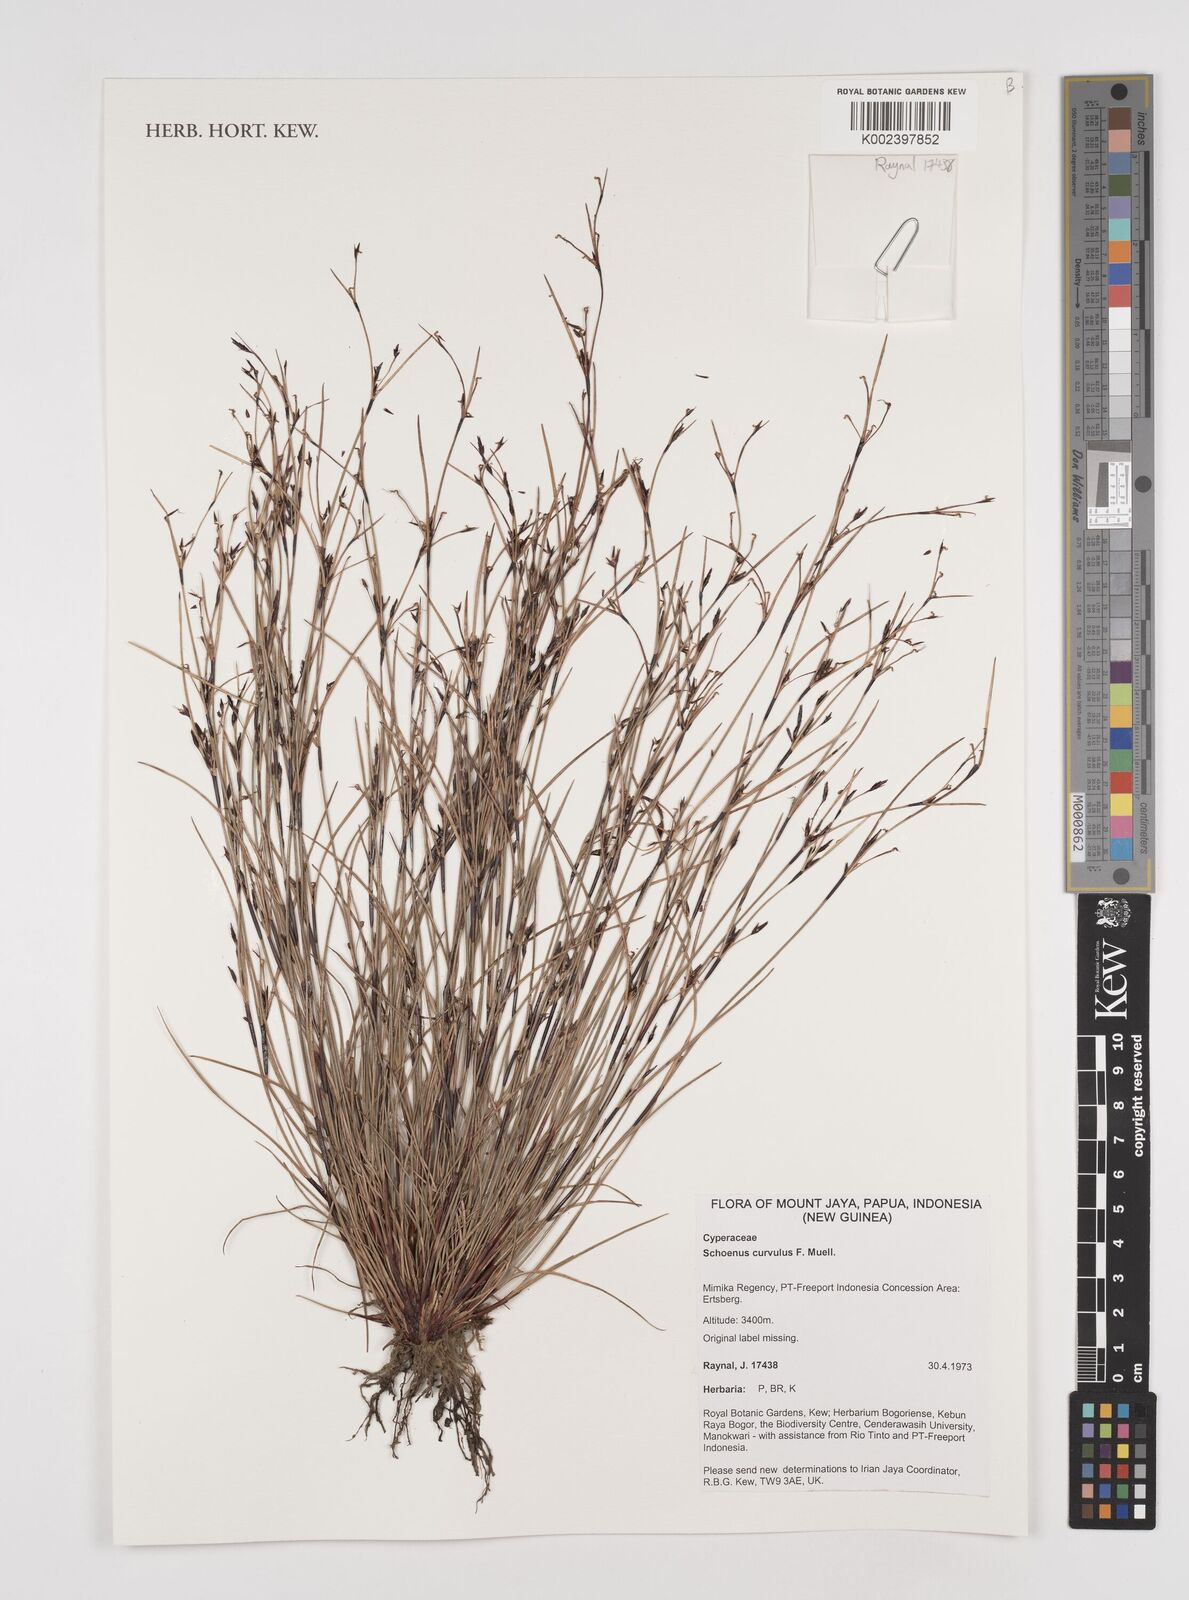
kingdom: Plantae
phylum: Tracheophyta
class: Liliopsida
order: Poales
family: Cyperaceae
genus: Schoenus
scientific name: Schoenus curvulus
